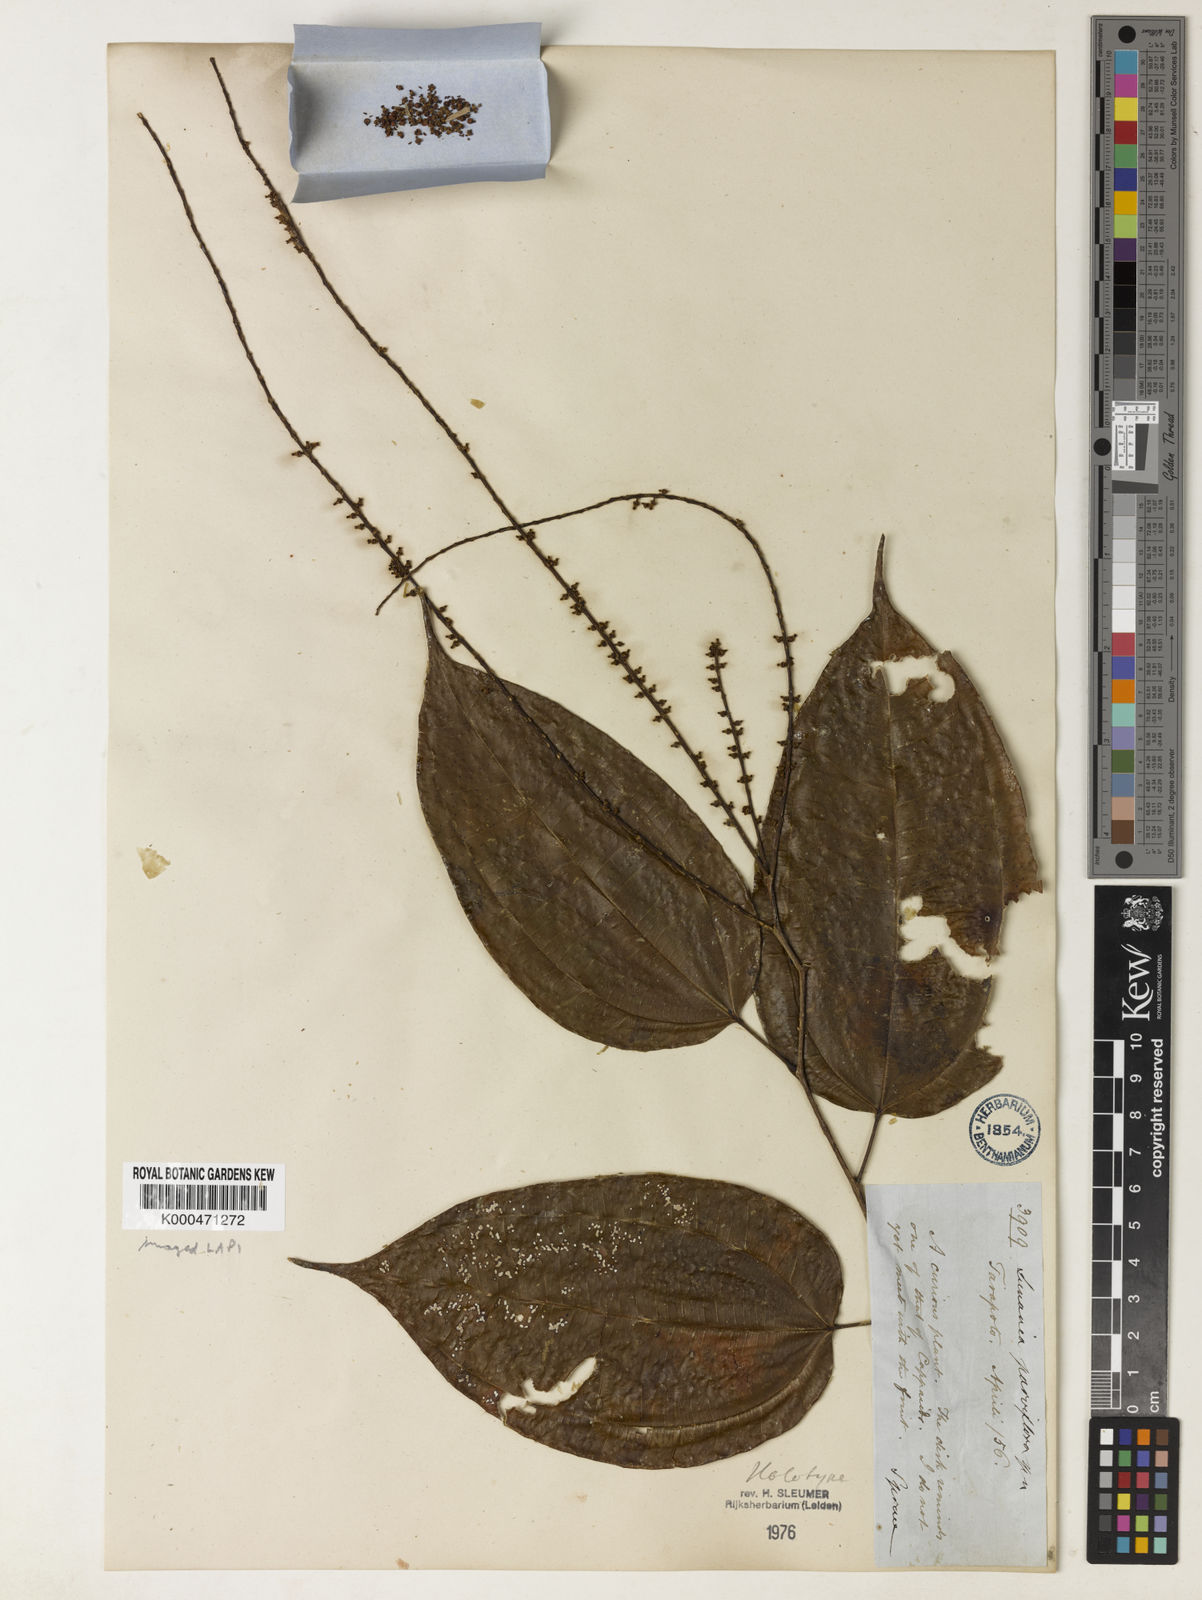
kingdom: Plantae
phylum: Tracheophyta
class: Magnoliopsida
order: Malpighiales
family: Salicaceae
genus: Lunania
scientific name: Lunania parviflora
